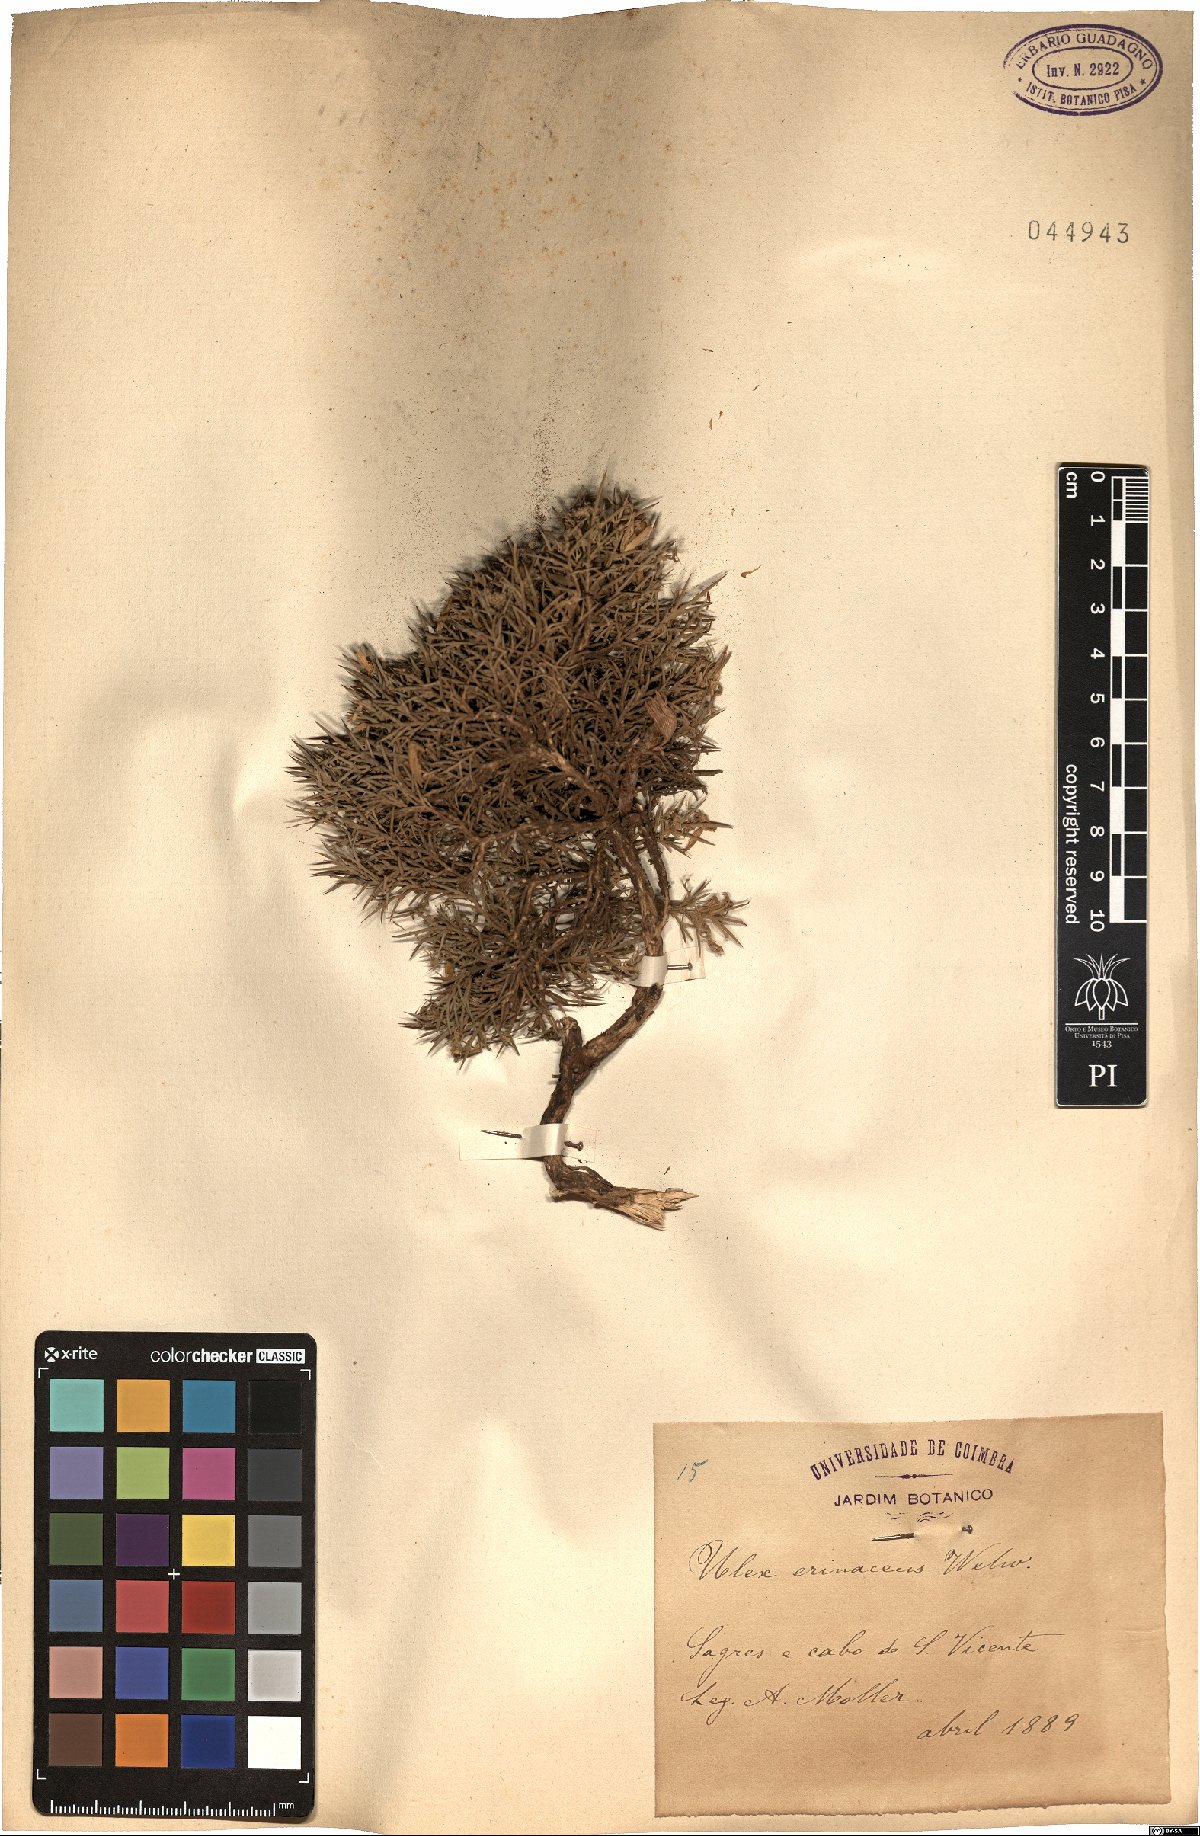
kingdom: Plantae
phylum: Tracheophyta
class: Magnoliopsida
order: Fabales
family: Fabaceae
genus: Ulex
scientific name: Ulex erinaceus
